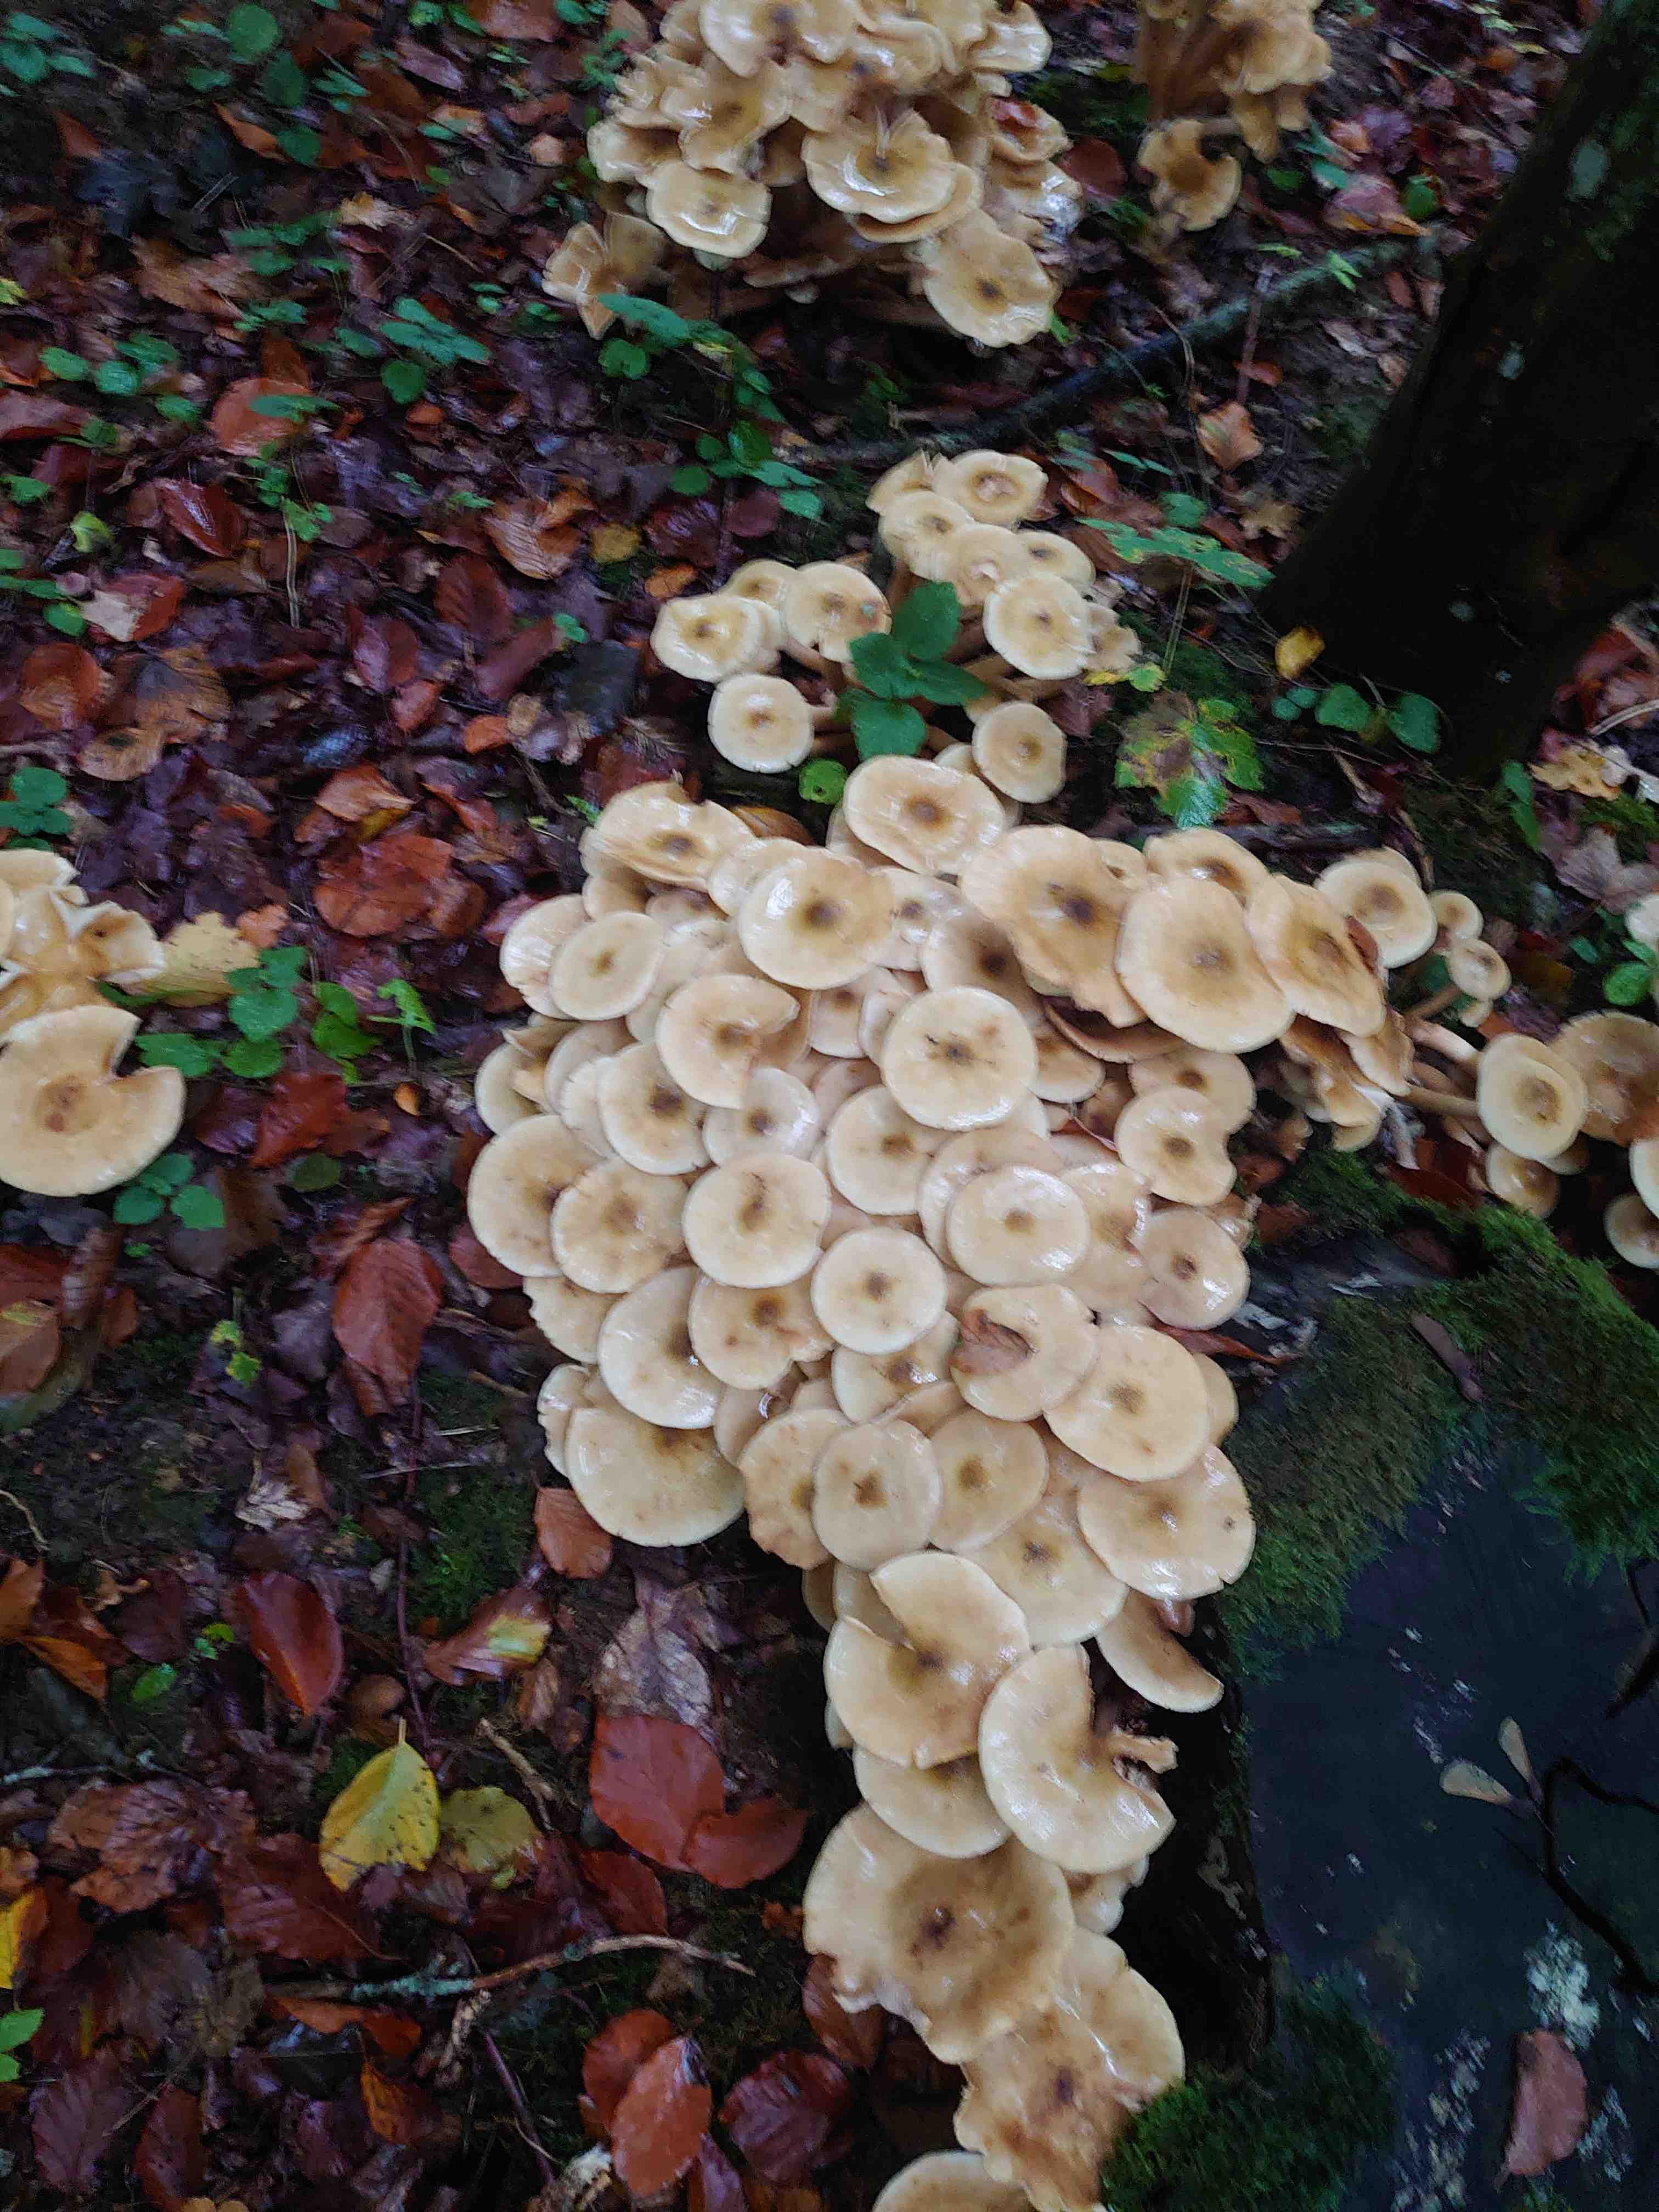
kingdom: Fungi
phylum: Basidiomycota
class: Agaricomycetes
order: Agaricales
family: Physalacriaceae
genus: Armillaria
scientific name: Armillaria mellea
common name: ægte honningsvamp
